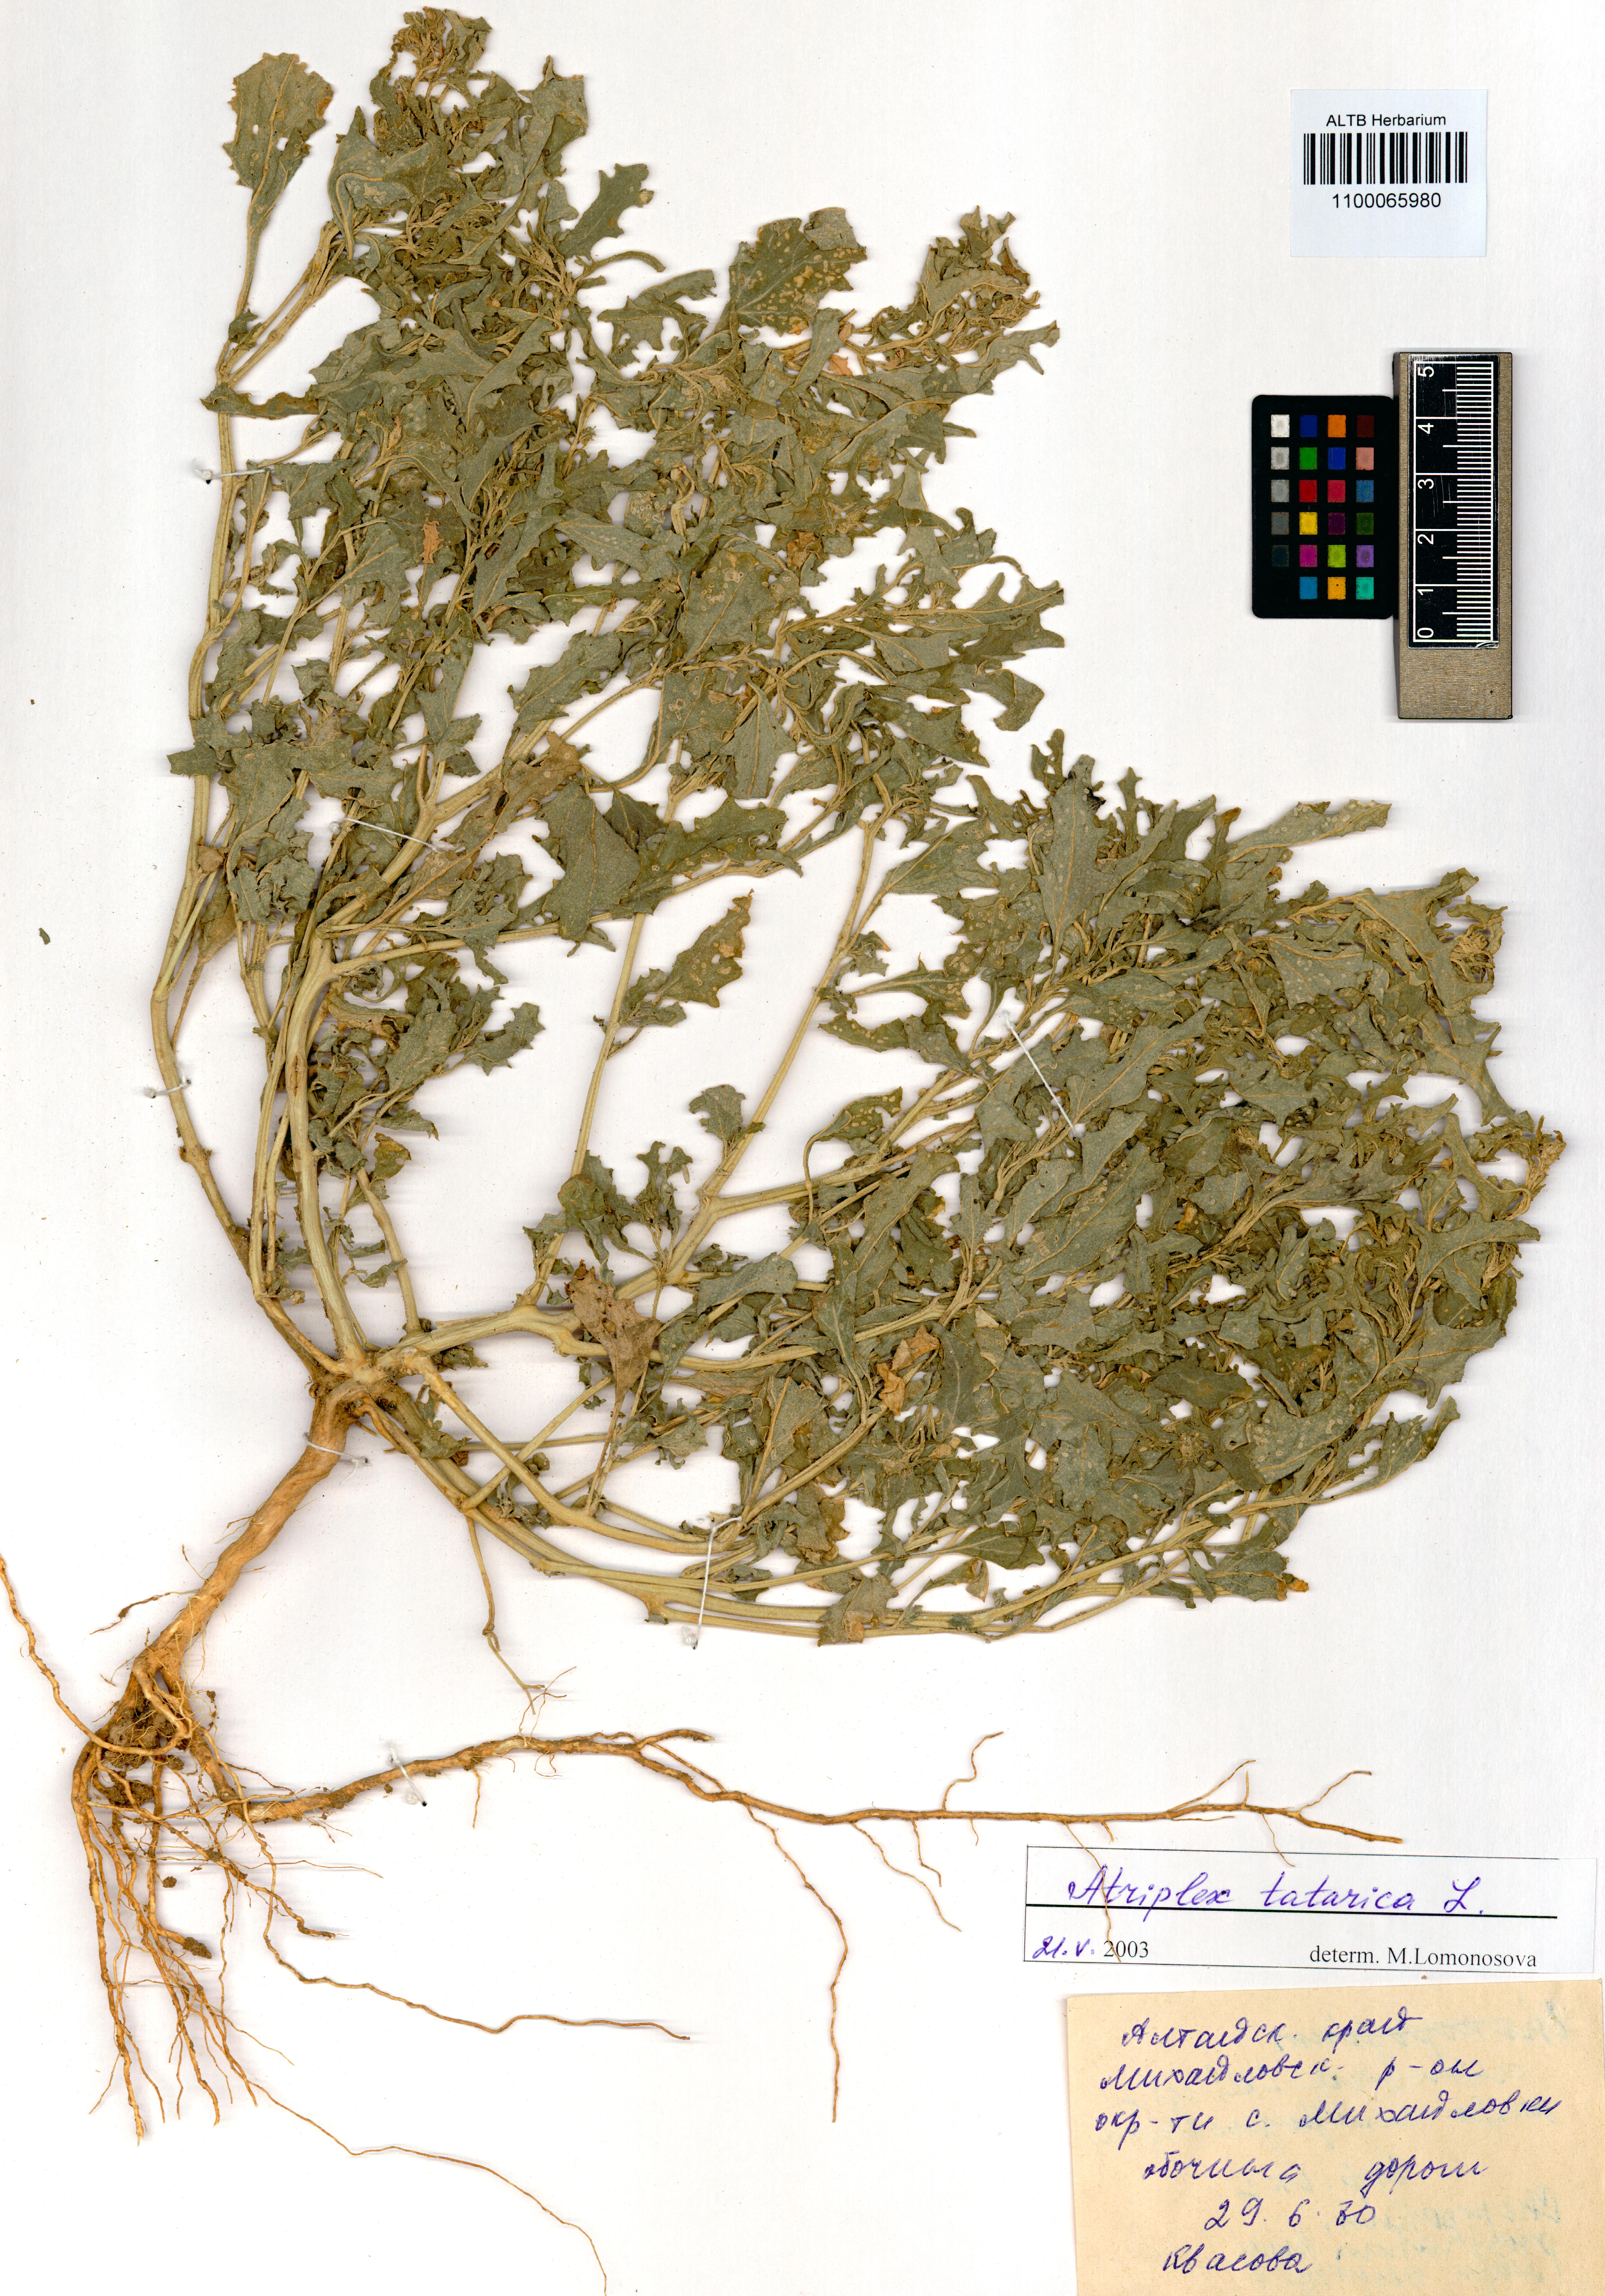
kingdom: Plantae
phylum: Tracheophyta
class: Magnoliopsida
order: Caryophyllales
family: Amaranthaceae
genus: Atriplex
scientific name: Atriplex tatarica
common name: Tatarian orache
